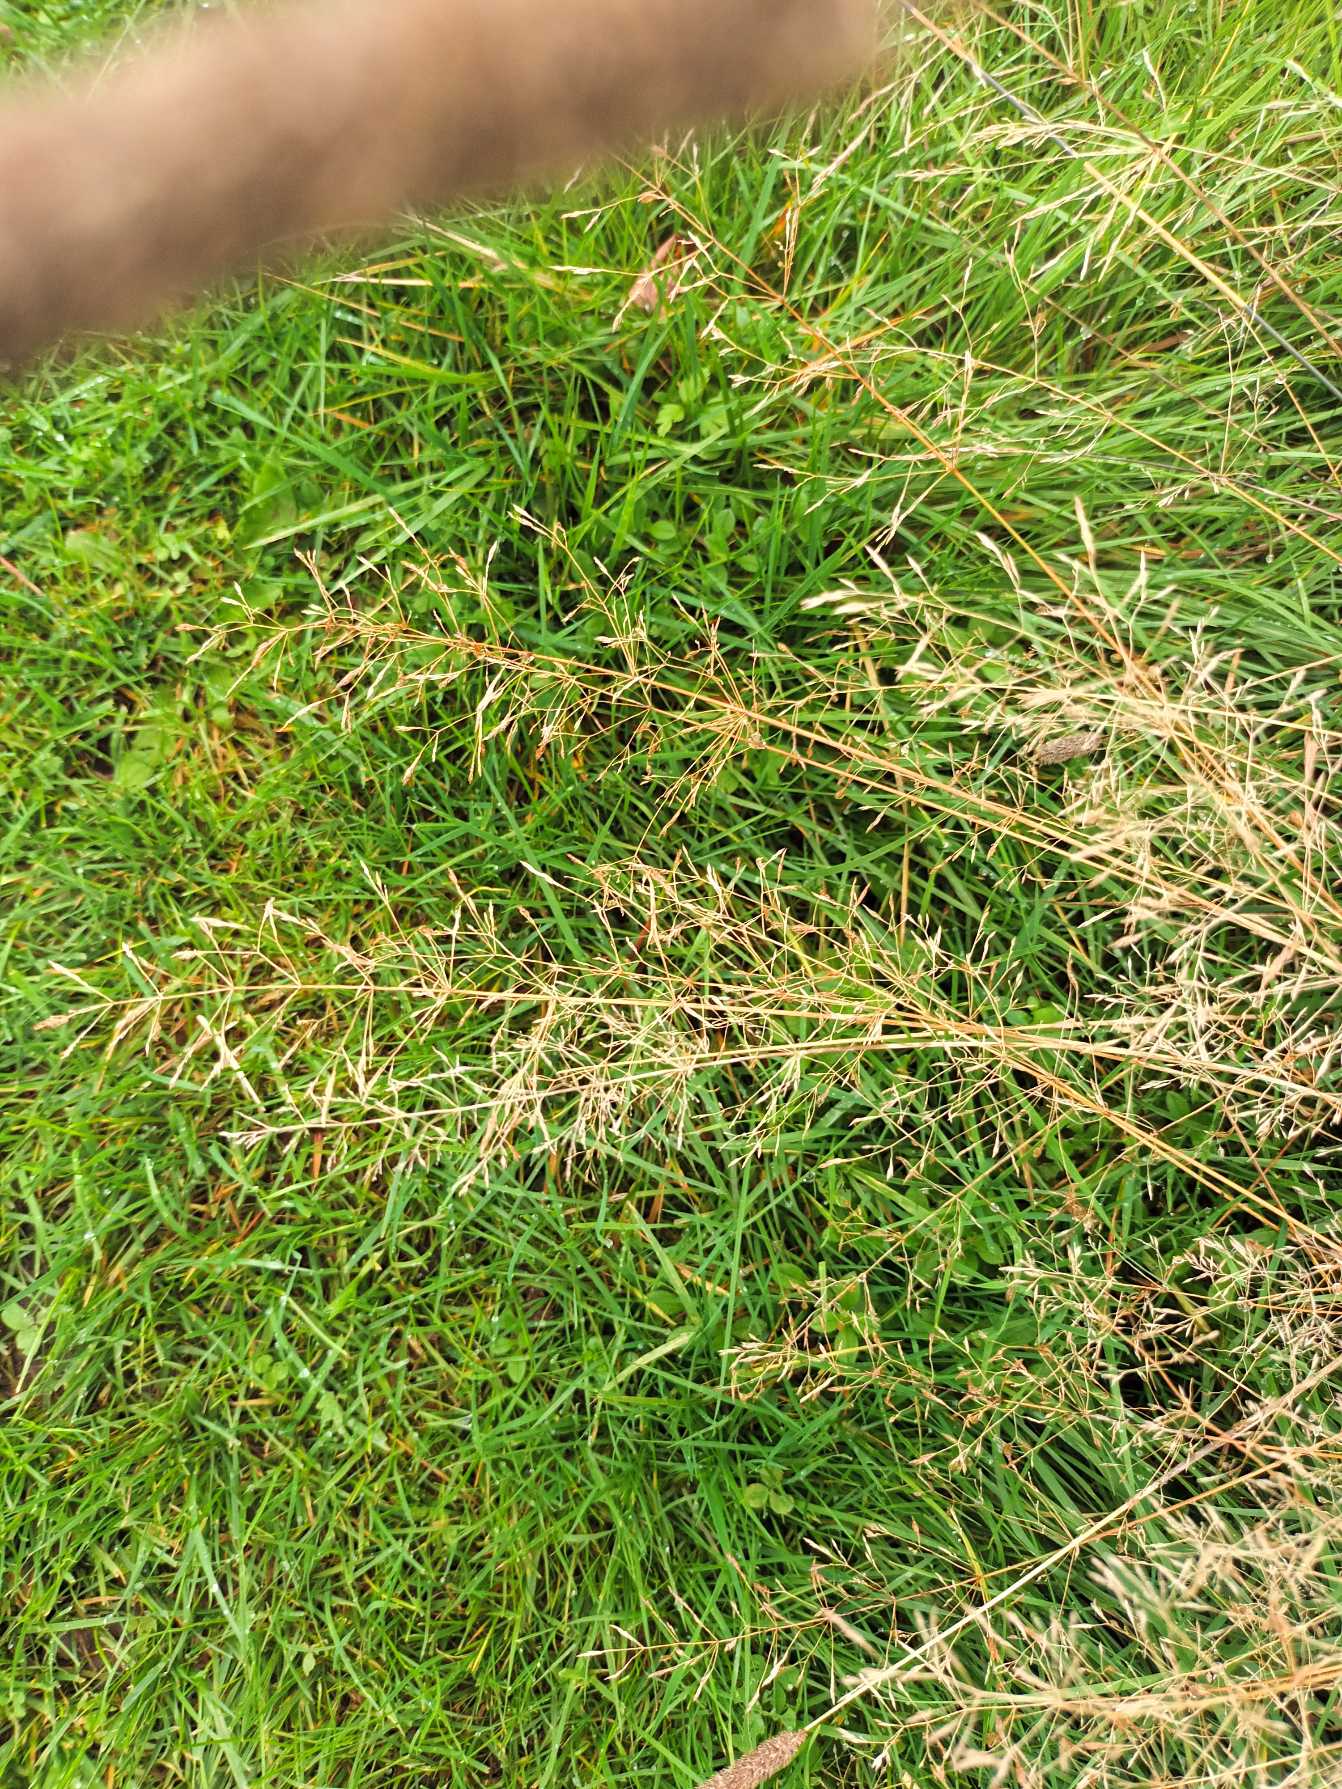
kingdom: Plantae
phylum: Tracheophyta
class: Liliopsida
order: Poales
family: Poaceae
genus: Agrostis
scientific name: Agrostis capillaris
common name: Almindelig hvene
